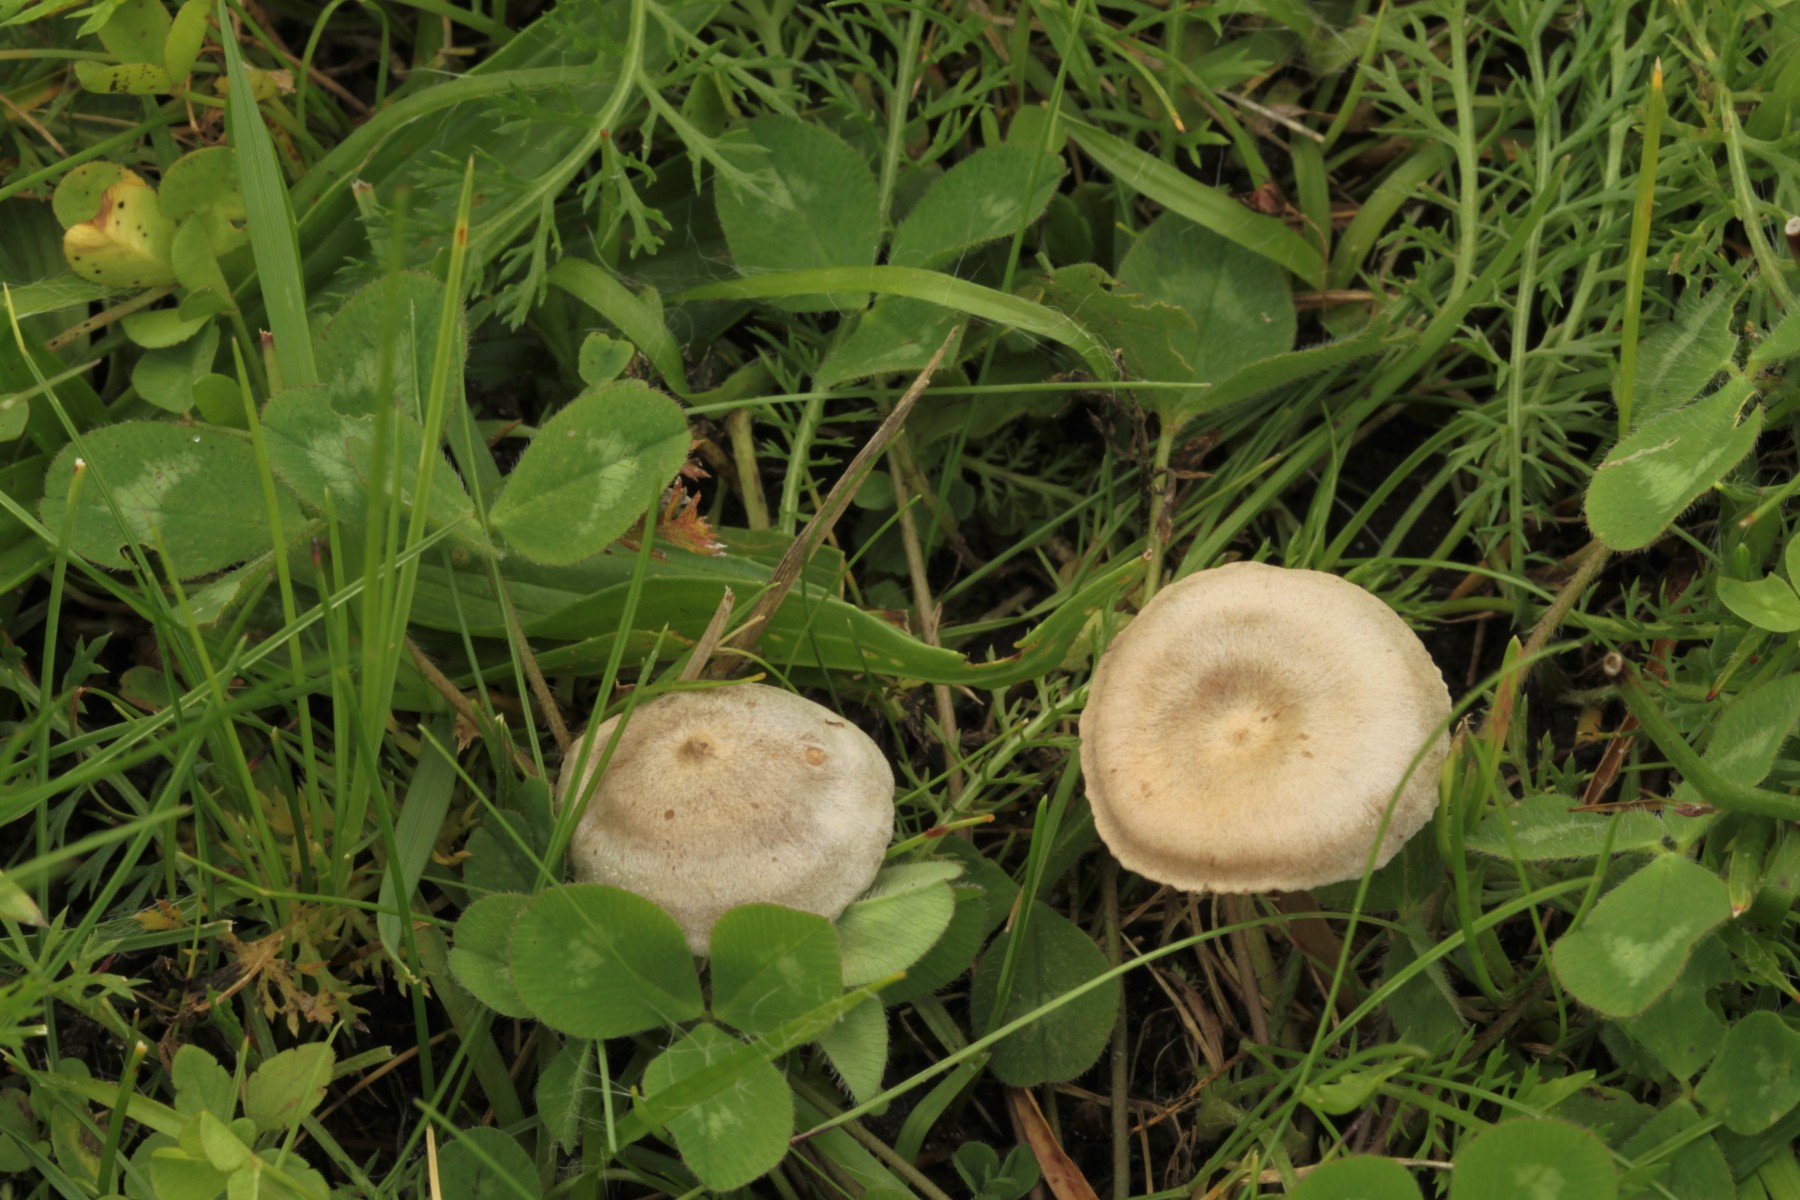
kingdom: Fungi
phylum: Basidiomycota
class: Agaricomycetes
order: Agaricales
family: Entolomataceae
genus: Entoloma
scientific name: Entoloma korhonenii
